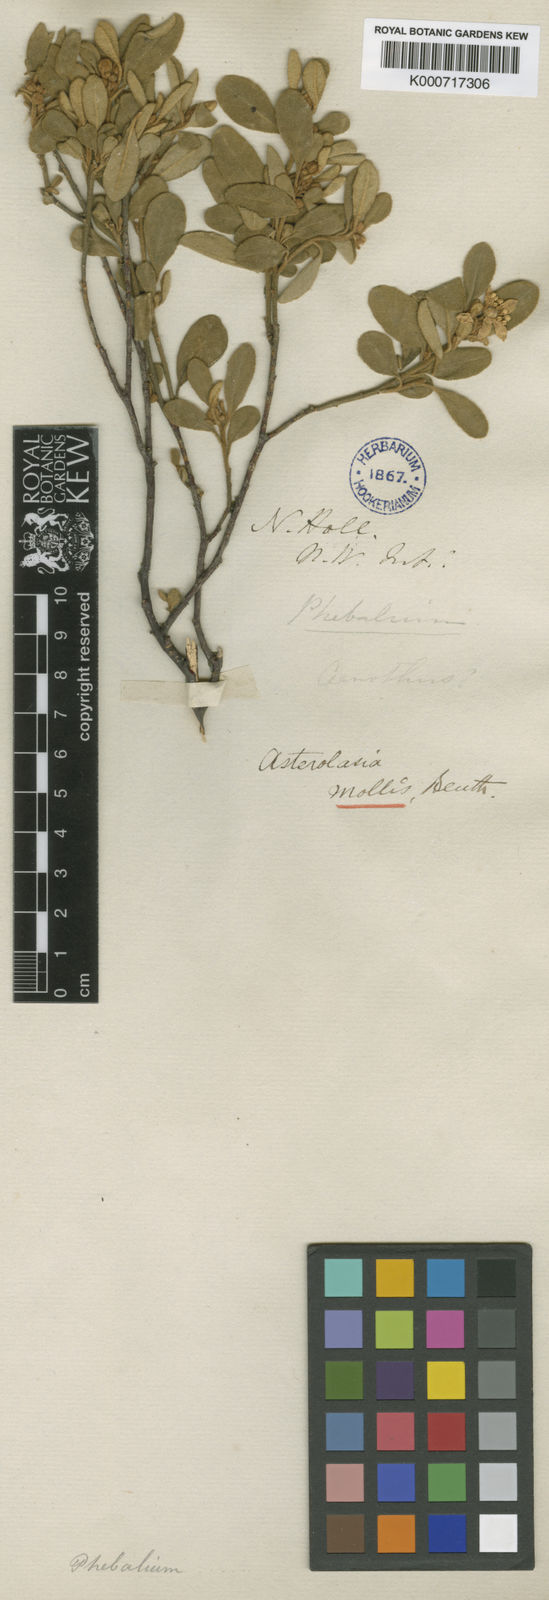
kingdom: Plantae
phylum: Tracheophyta
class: Magnoliopsida
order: Sapindales
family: Rutaceae
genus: Asterolasia
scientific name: Asterolasia hexapetala
